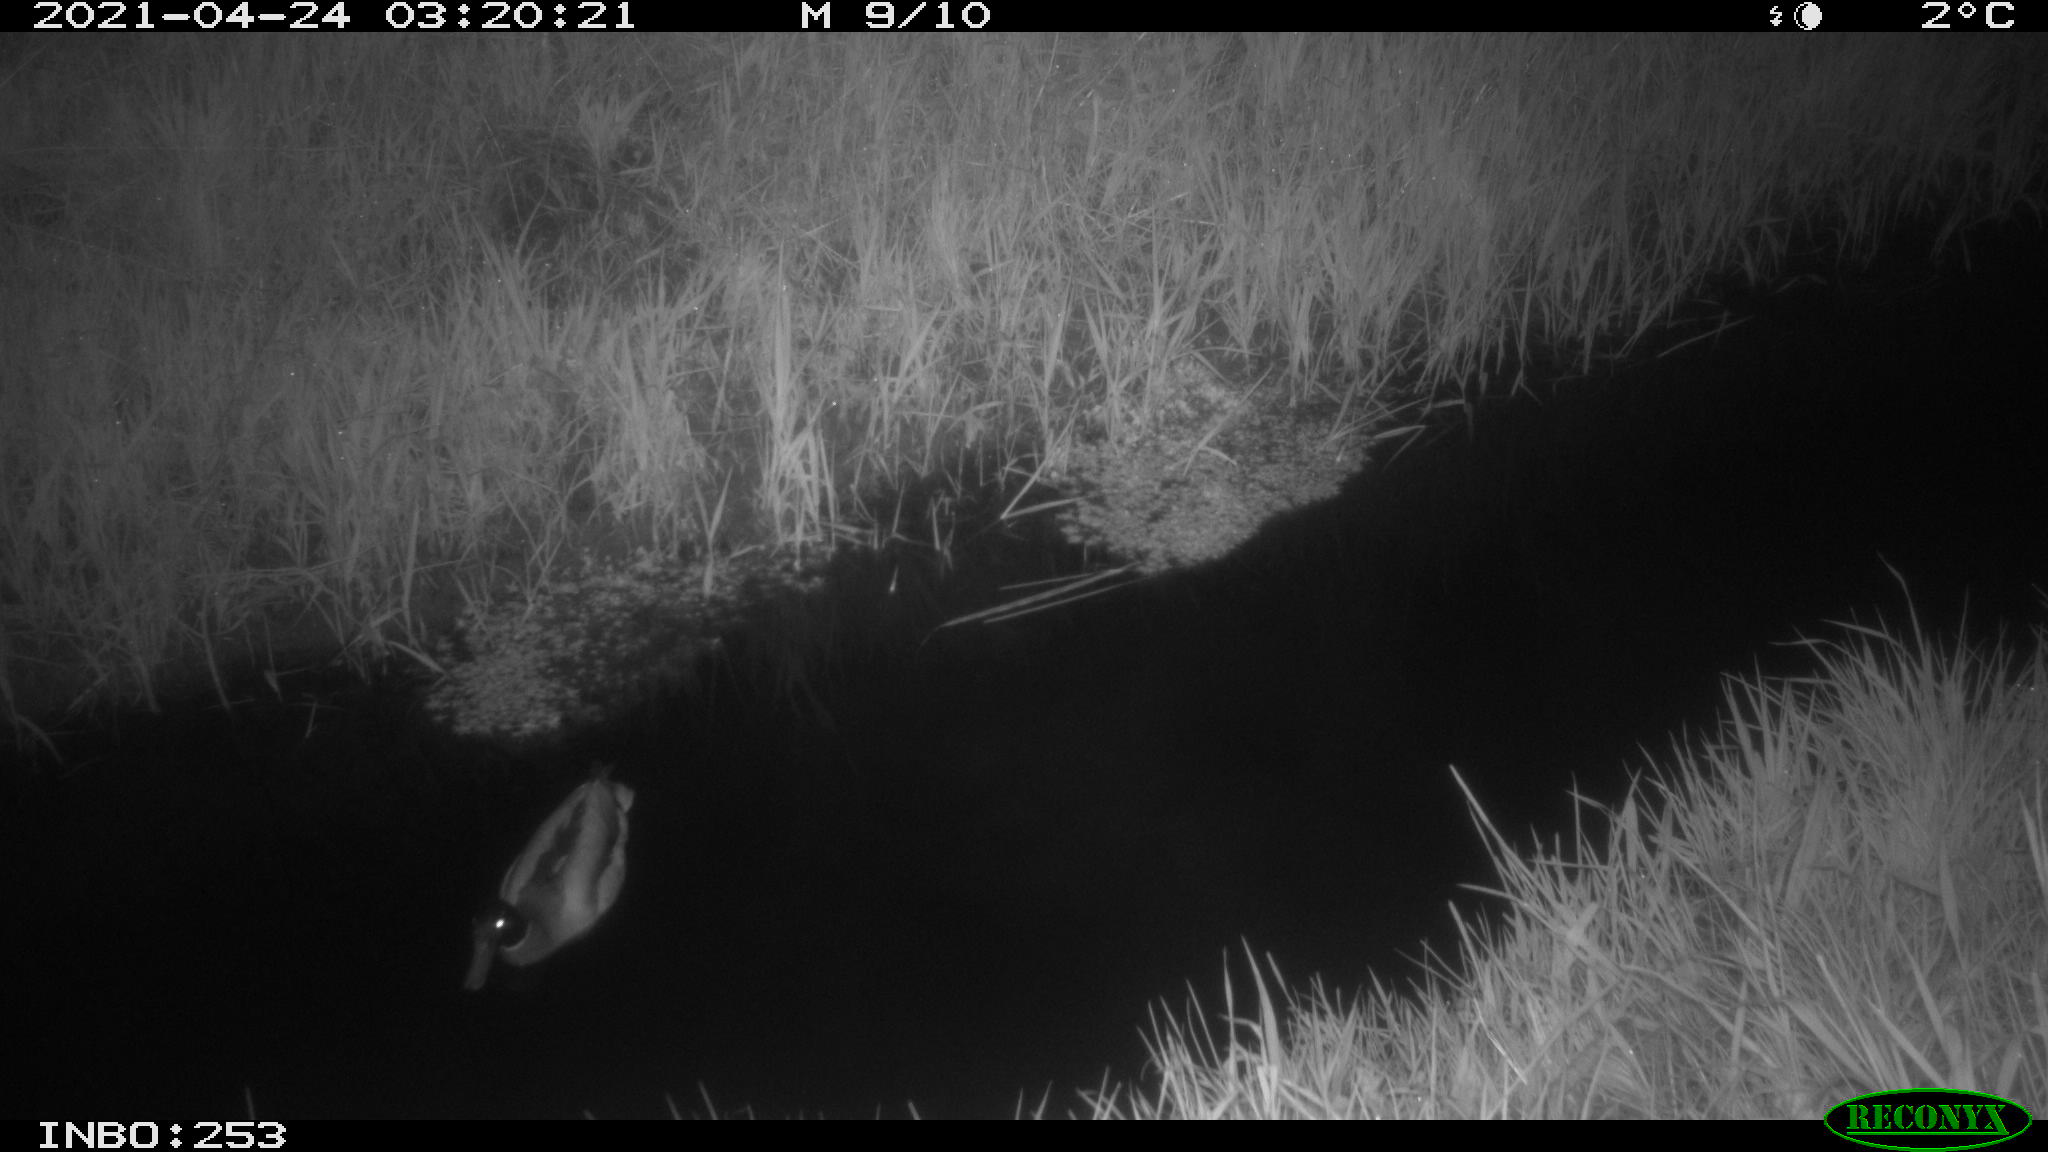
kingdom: Animalia
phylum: Chordata
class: Aves
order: Anseriformes
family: Anatidae
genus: Anas
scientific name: Anas platyrhynchos
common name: Mallard
